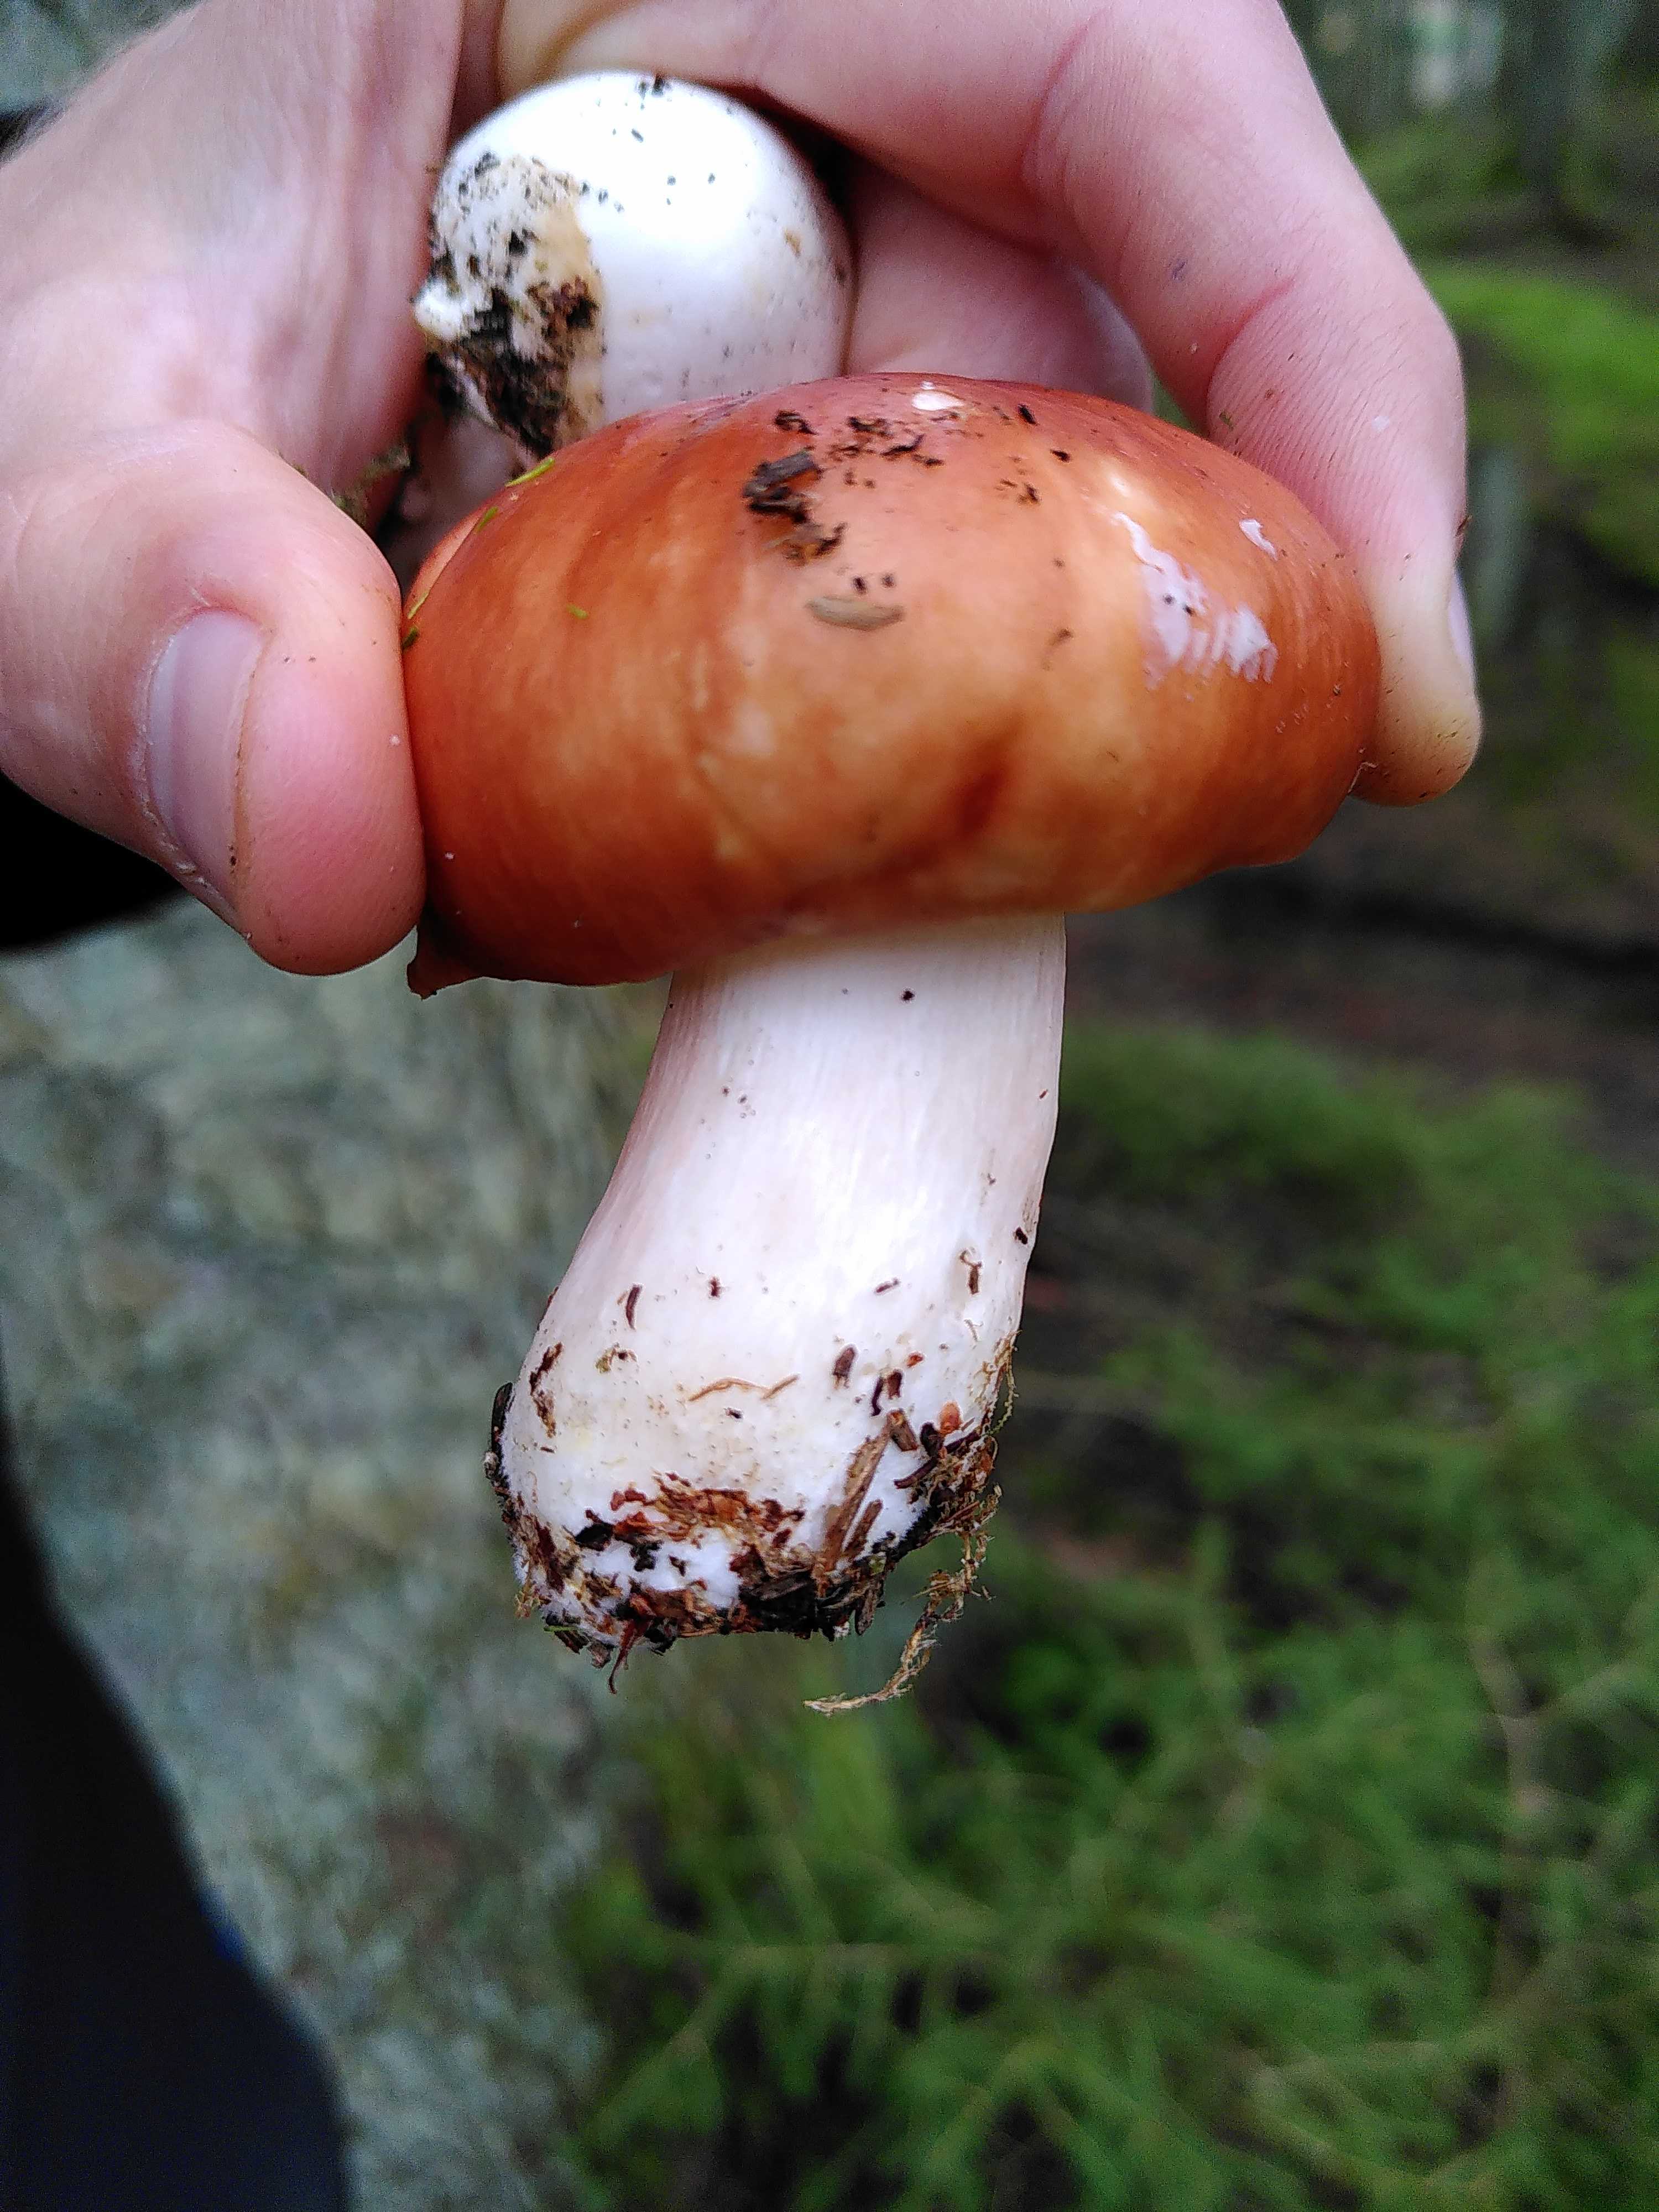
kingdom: Fungi
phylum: Basidiomycota
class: Agaricomycetes
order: Russulales
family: Russulaceae
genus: Russula
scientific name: Russula paludosa
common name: prægtig skørhat
